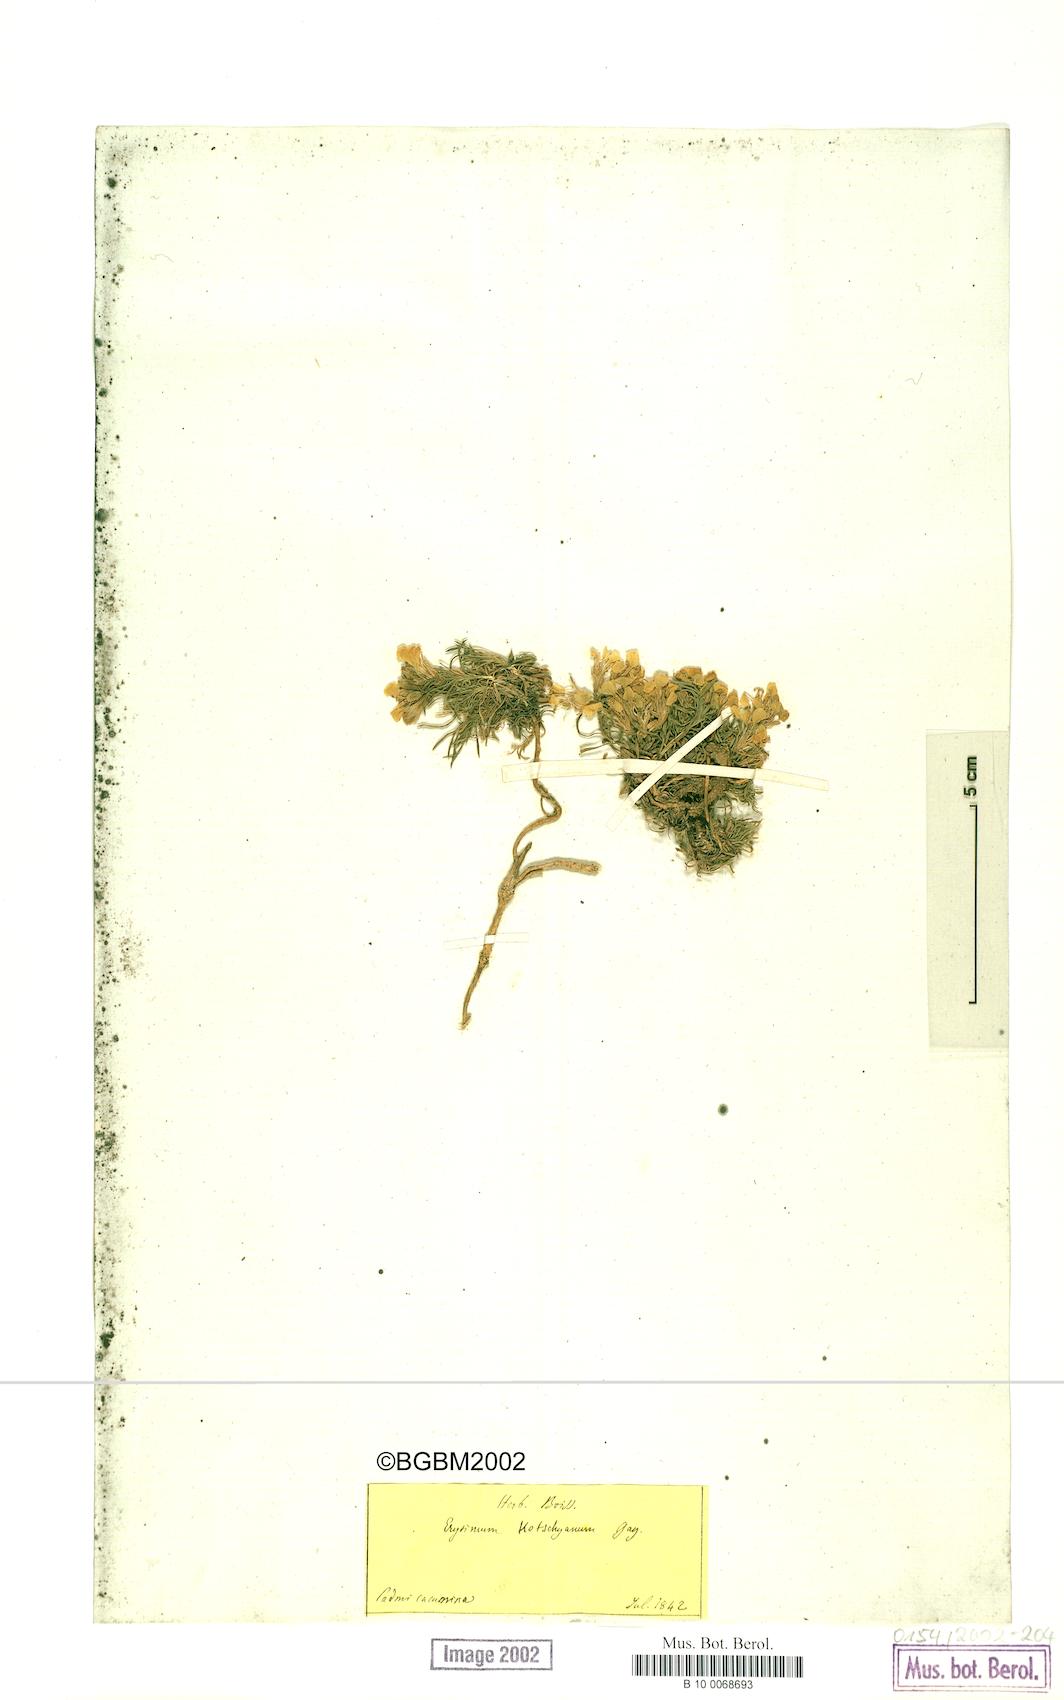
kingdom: Plantae
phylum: Tracheophyta
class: Magnoliopsida
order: Brassicales
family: Brassicaceae
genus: Erysimum
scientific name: Erysimum kotschyanum
